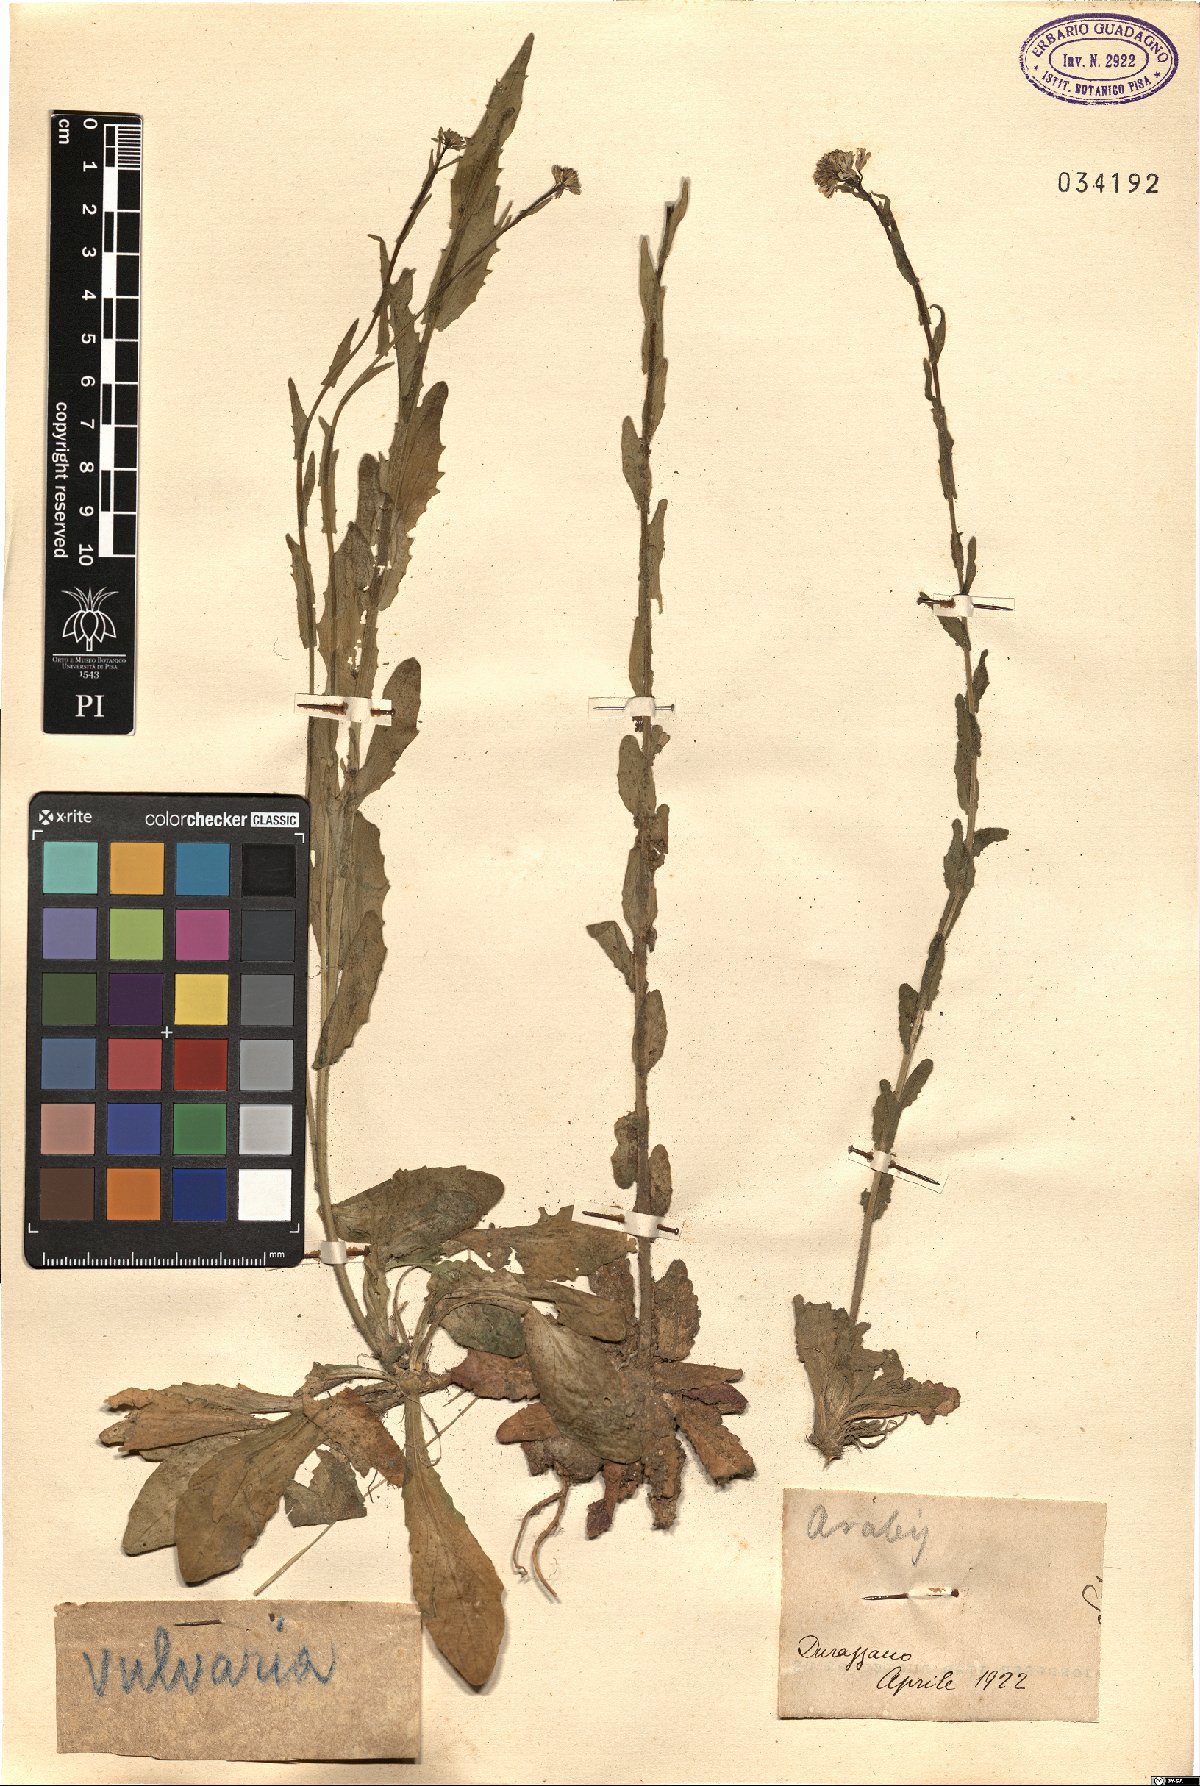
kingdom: Plantae
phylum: Tracheophyta
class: Magnoliopsida
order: Brassicales
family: Brassicaceae
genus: Arabis
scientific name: Arabis
